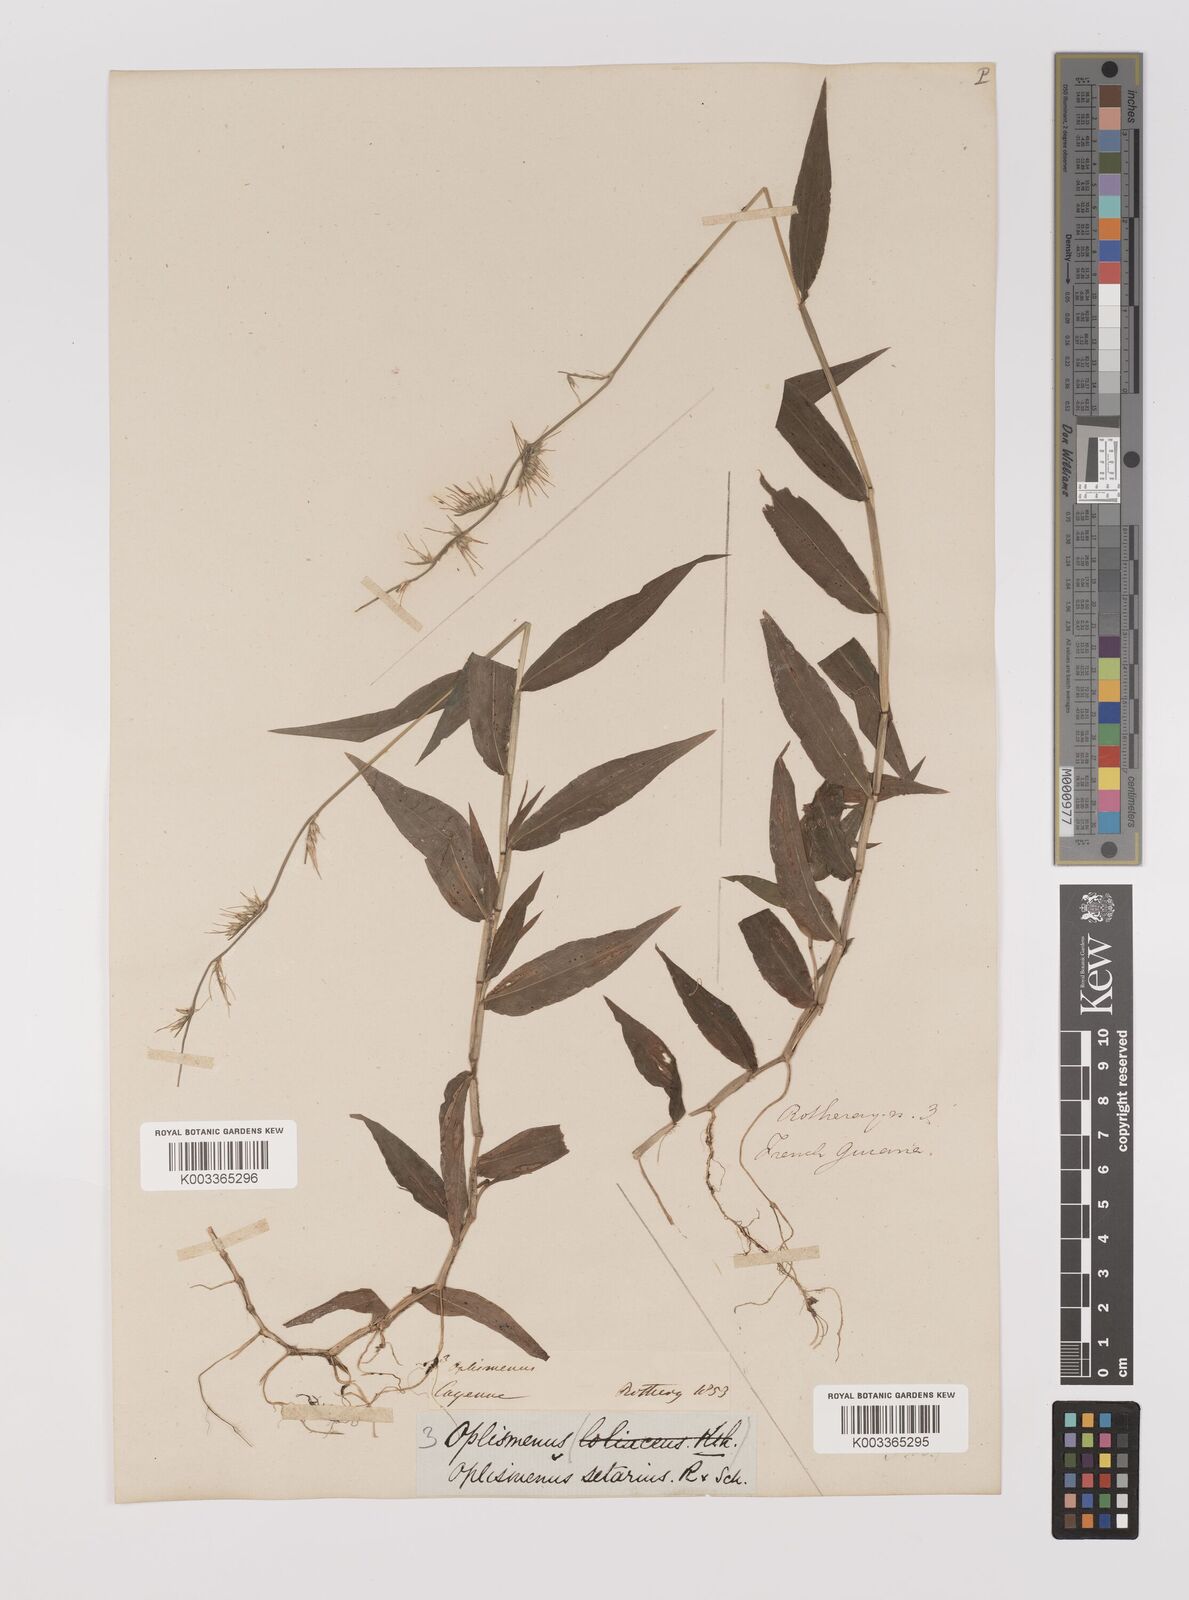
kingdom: Plantae
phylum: Tracheophyta
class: Liliopsida
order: Poales
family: Poaceae
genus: Oplismenus
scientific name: Oplismenus hirtellus
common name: Basketgrass
